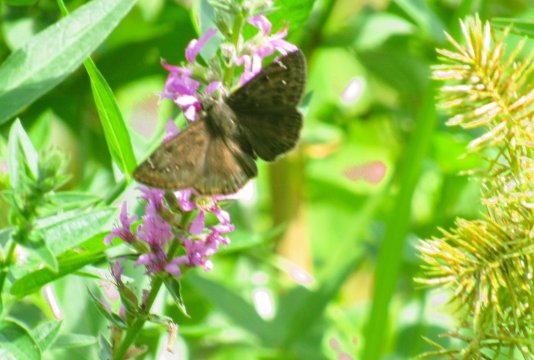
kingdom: Animalia
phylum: Arthropoda
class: Insecta
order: Lepidoptera
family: Hesperiidae
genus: Gesta
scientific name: Gesta
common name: Horace's Duskywing
